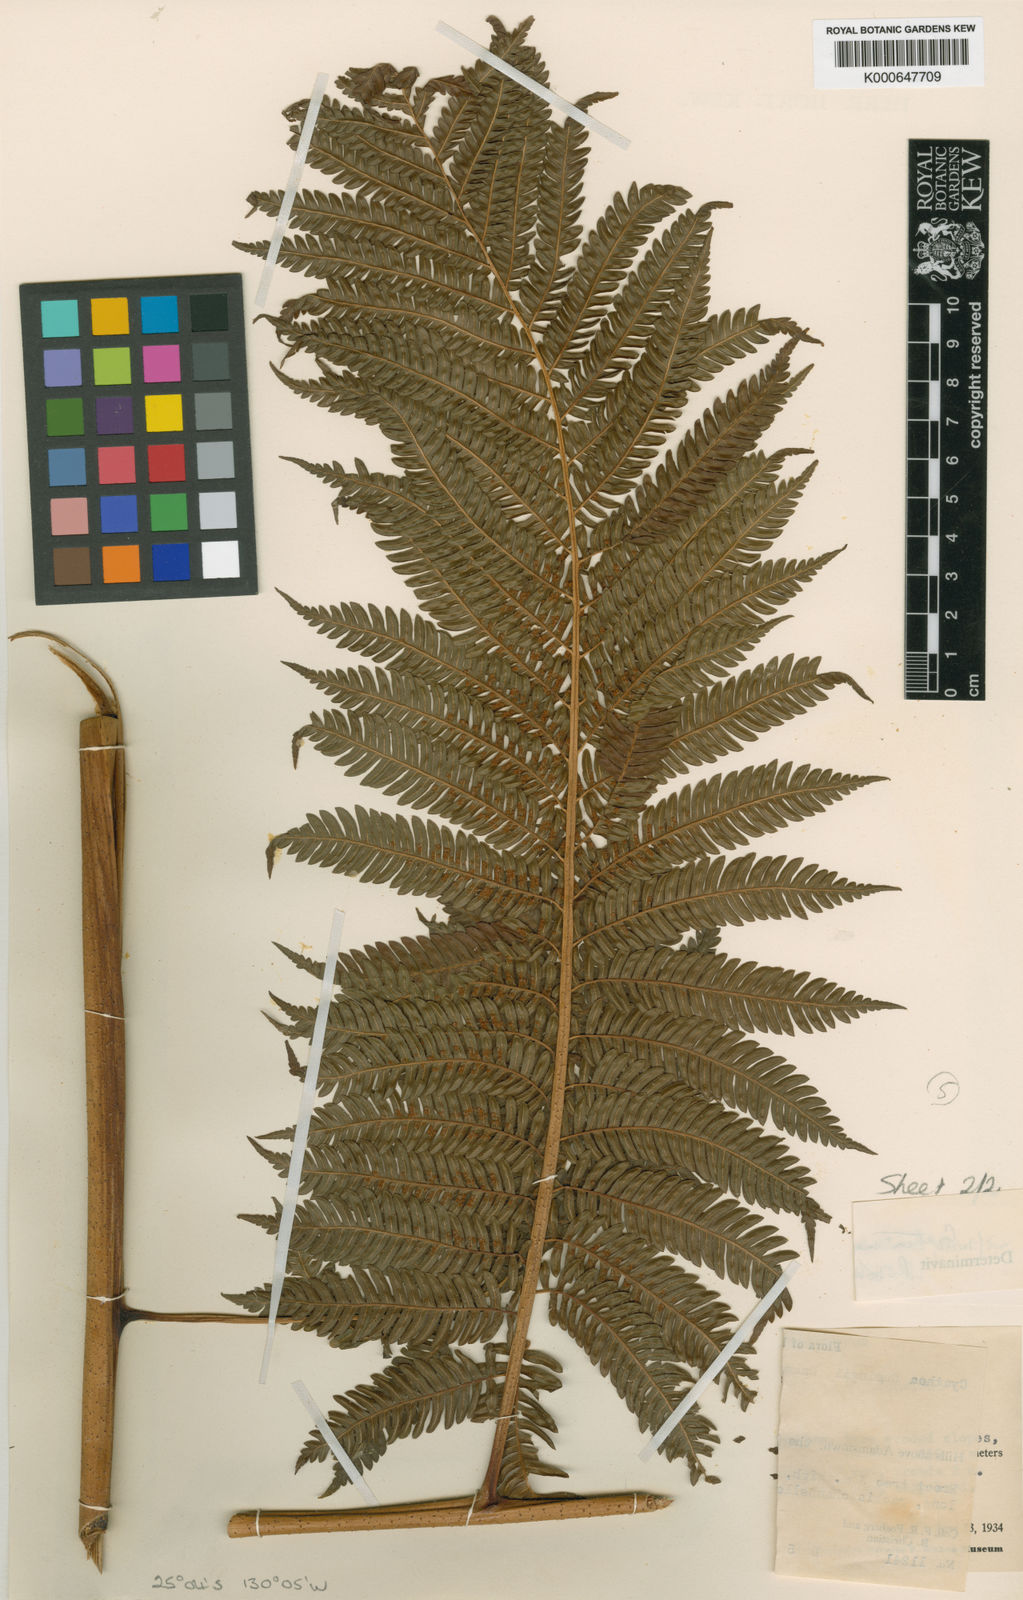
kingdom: Plantae
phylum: Tracheophyta
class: Polypodiopsida
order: Cyatheales
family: Cyatheaceae
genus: Sphaeropteris
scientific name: Sphaeropteris medullaris
